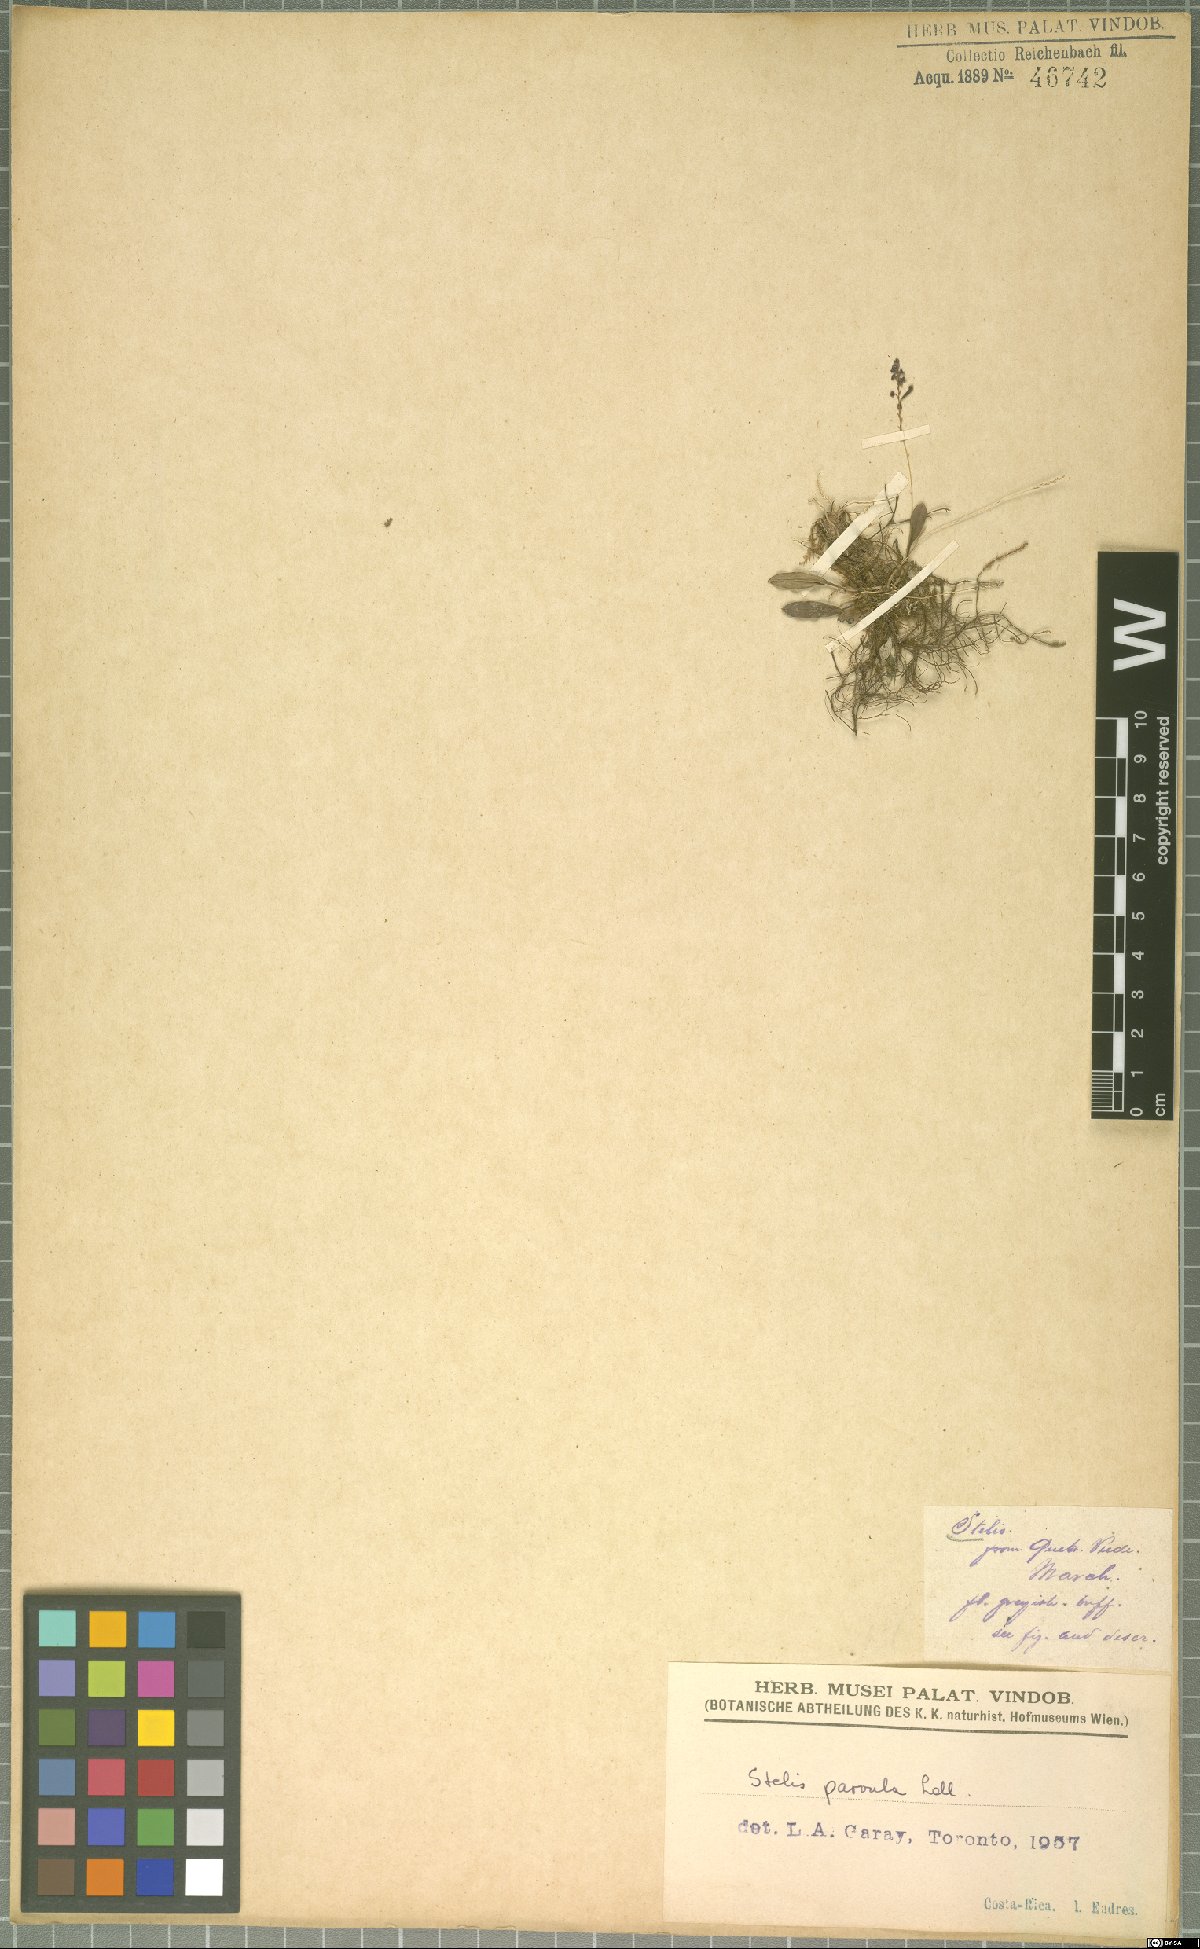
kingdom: Plantae
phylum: Tracheophyta
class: Liliopsida
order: Asparagales
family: Orchidaceae
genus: Stelis
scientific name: Stelis parvula
